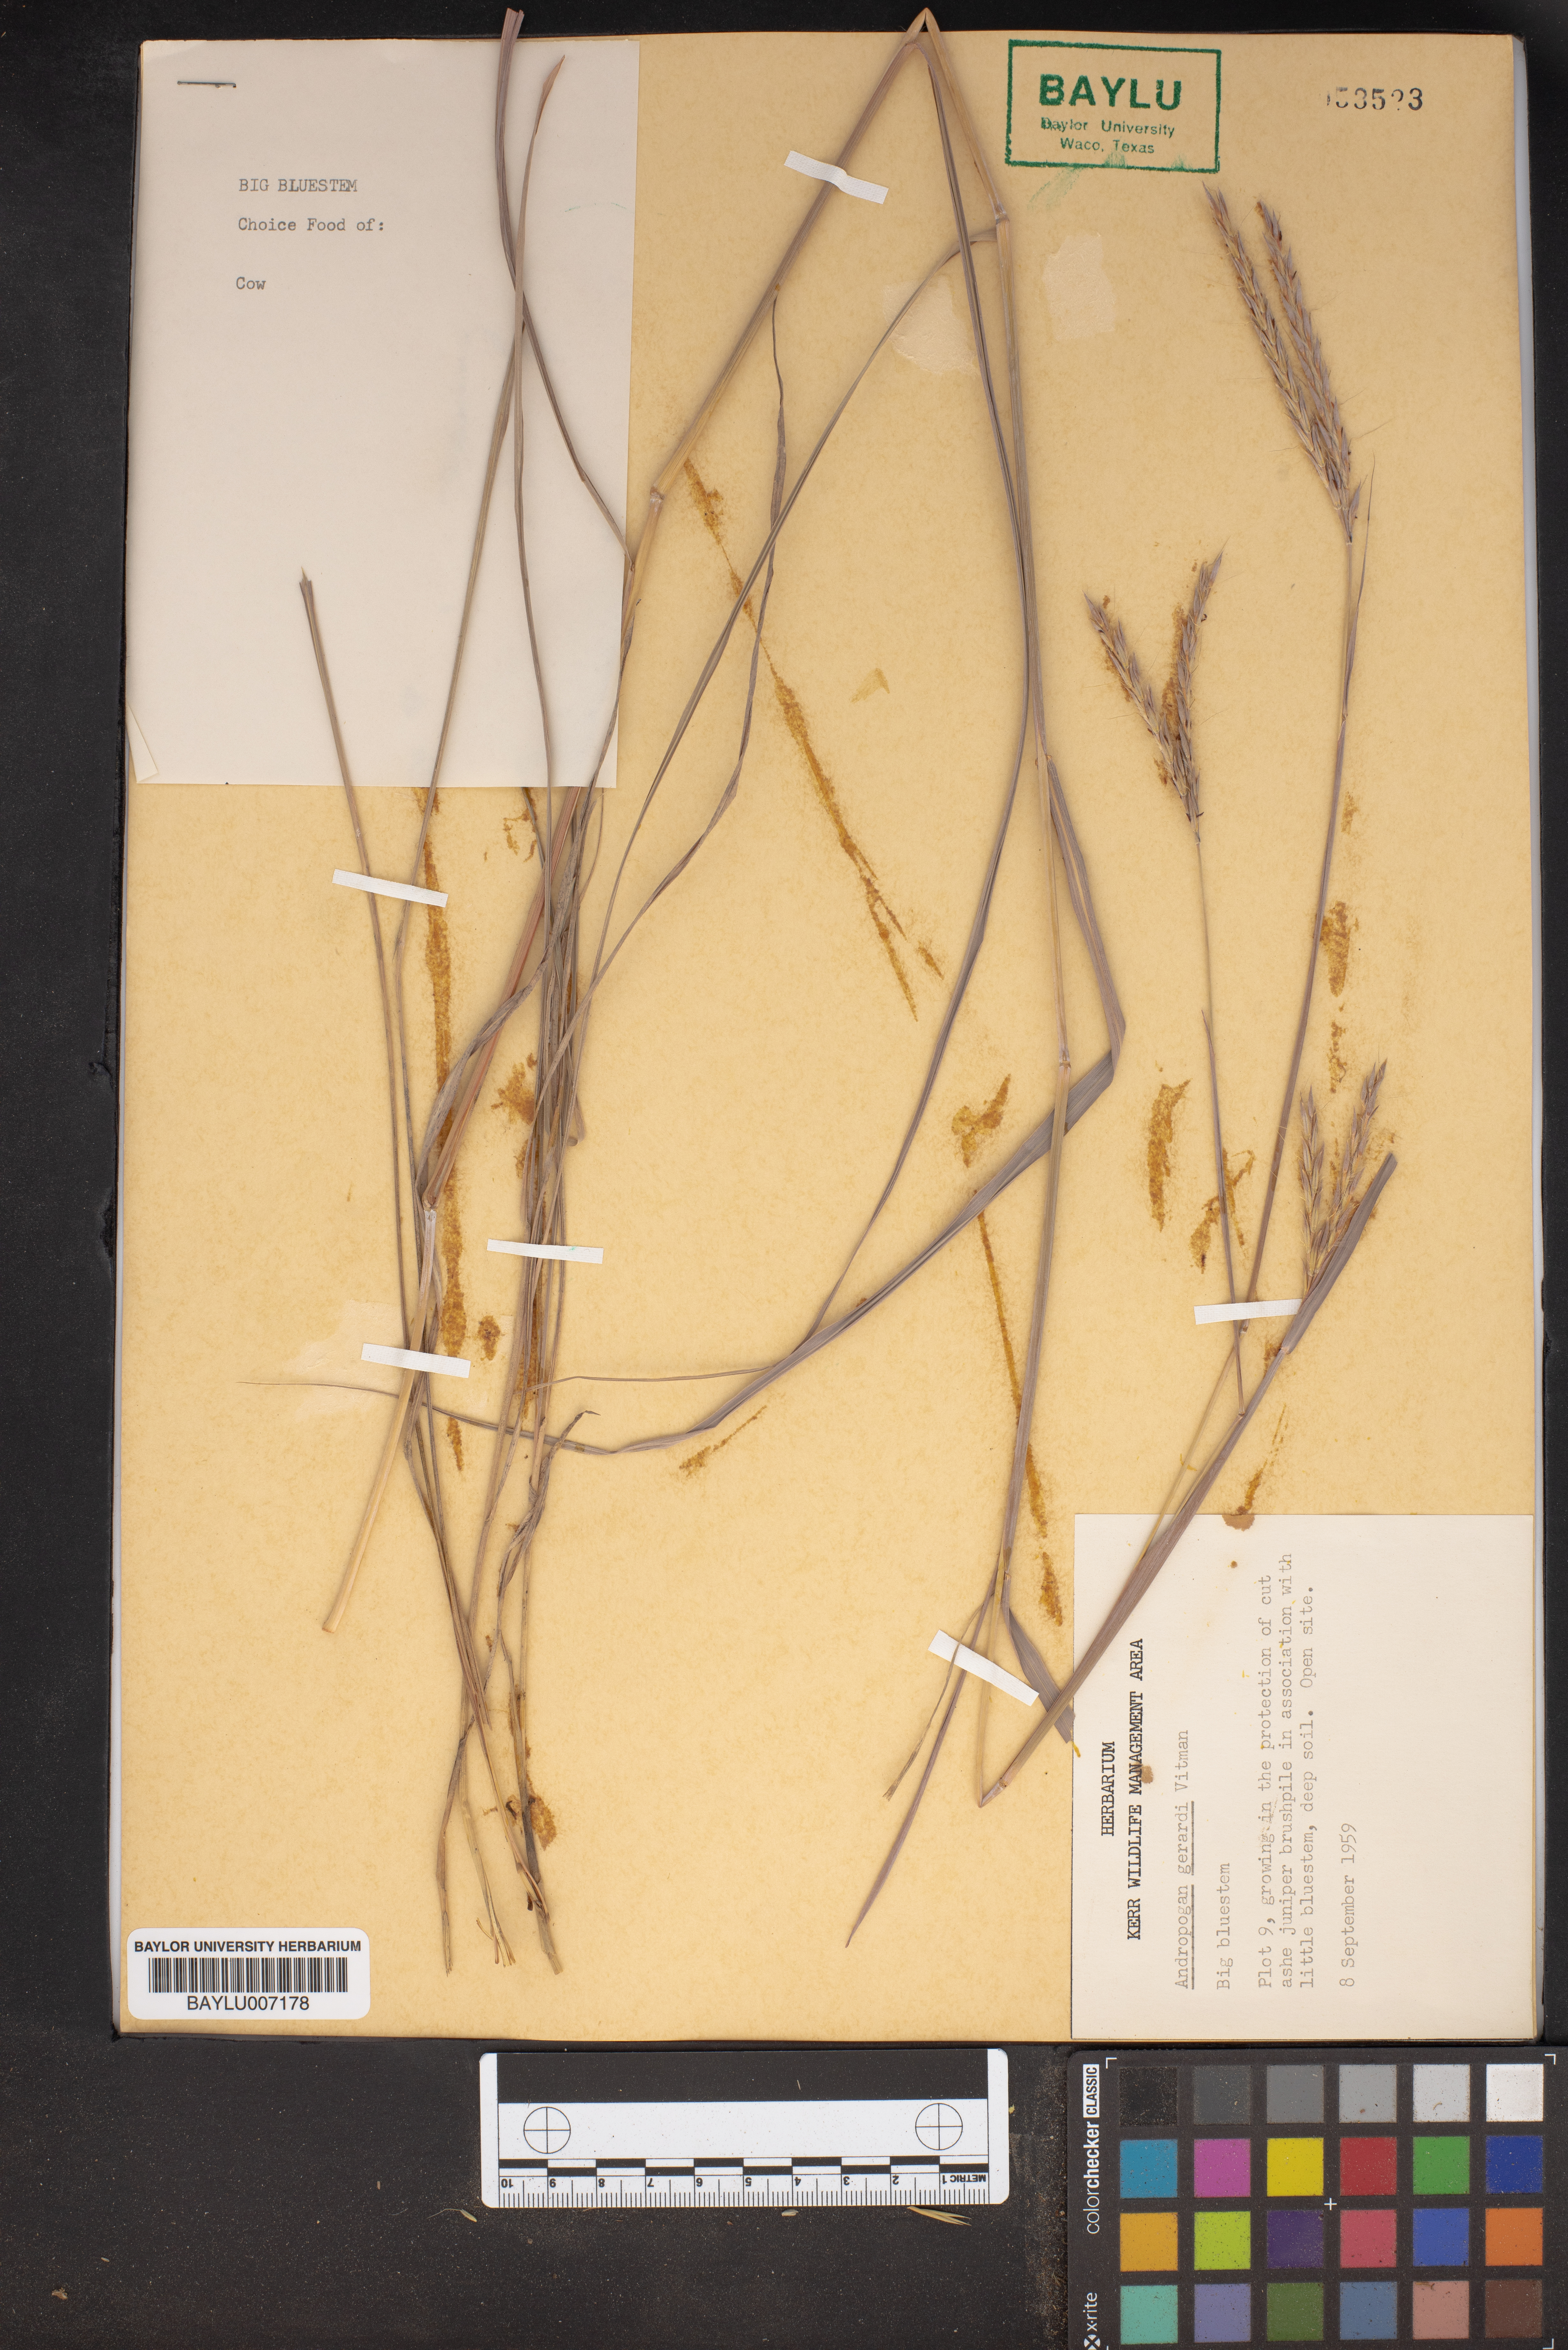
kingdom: Plantae
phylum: Tracheophyta
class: Liliopsida
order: Poales
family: Poaceae
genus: Andropogon
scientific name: Andropogon gerardi
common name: Big bluestem
